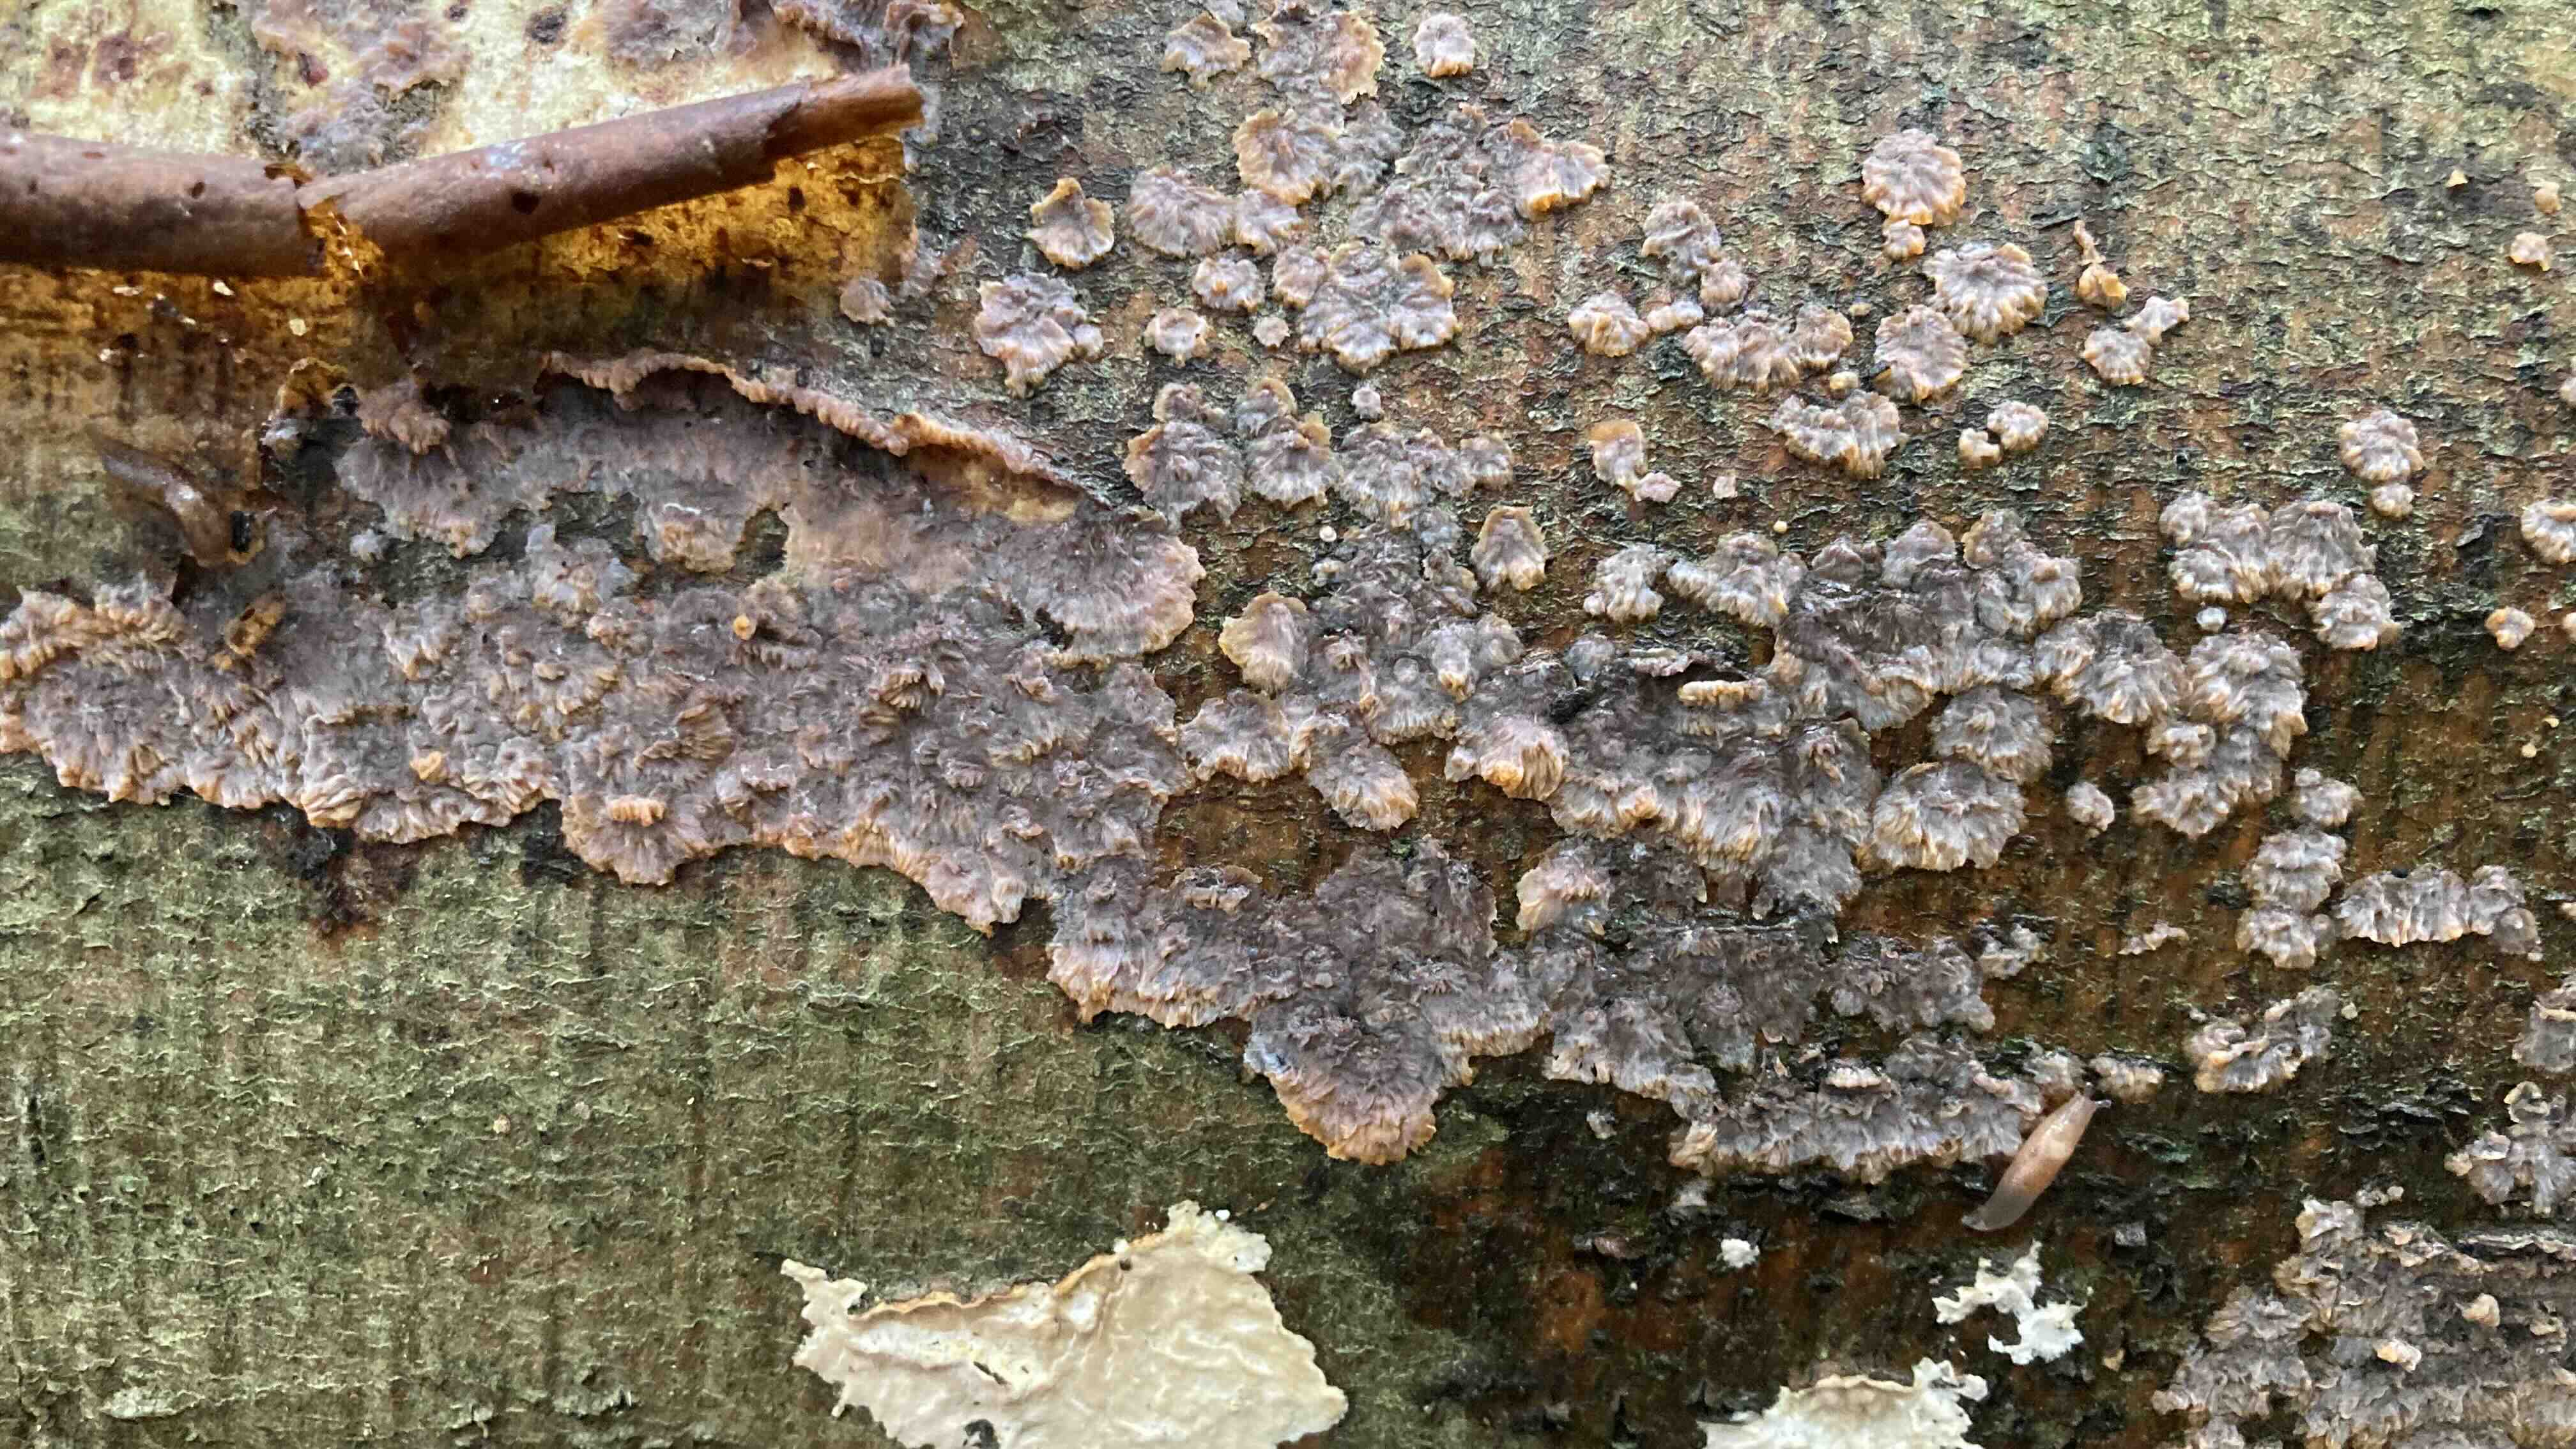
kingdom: Fungi
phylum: Basidiomycota
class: Agaricomycetes
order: Polyporales
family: Meruliaceae
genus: Phlebia
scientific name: Phlebia radiata
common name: stråle-åresvamp
